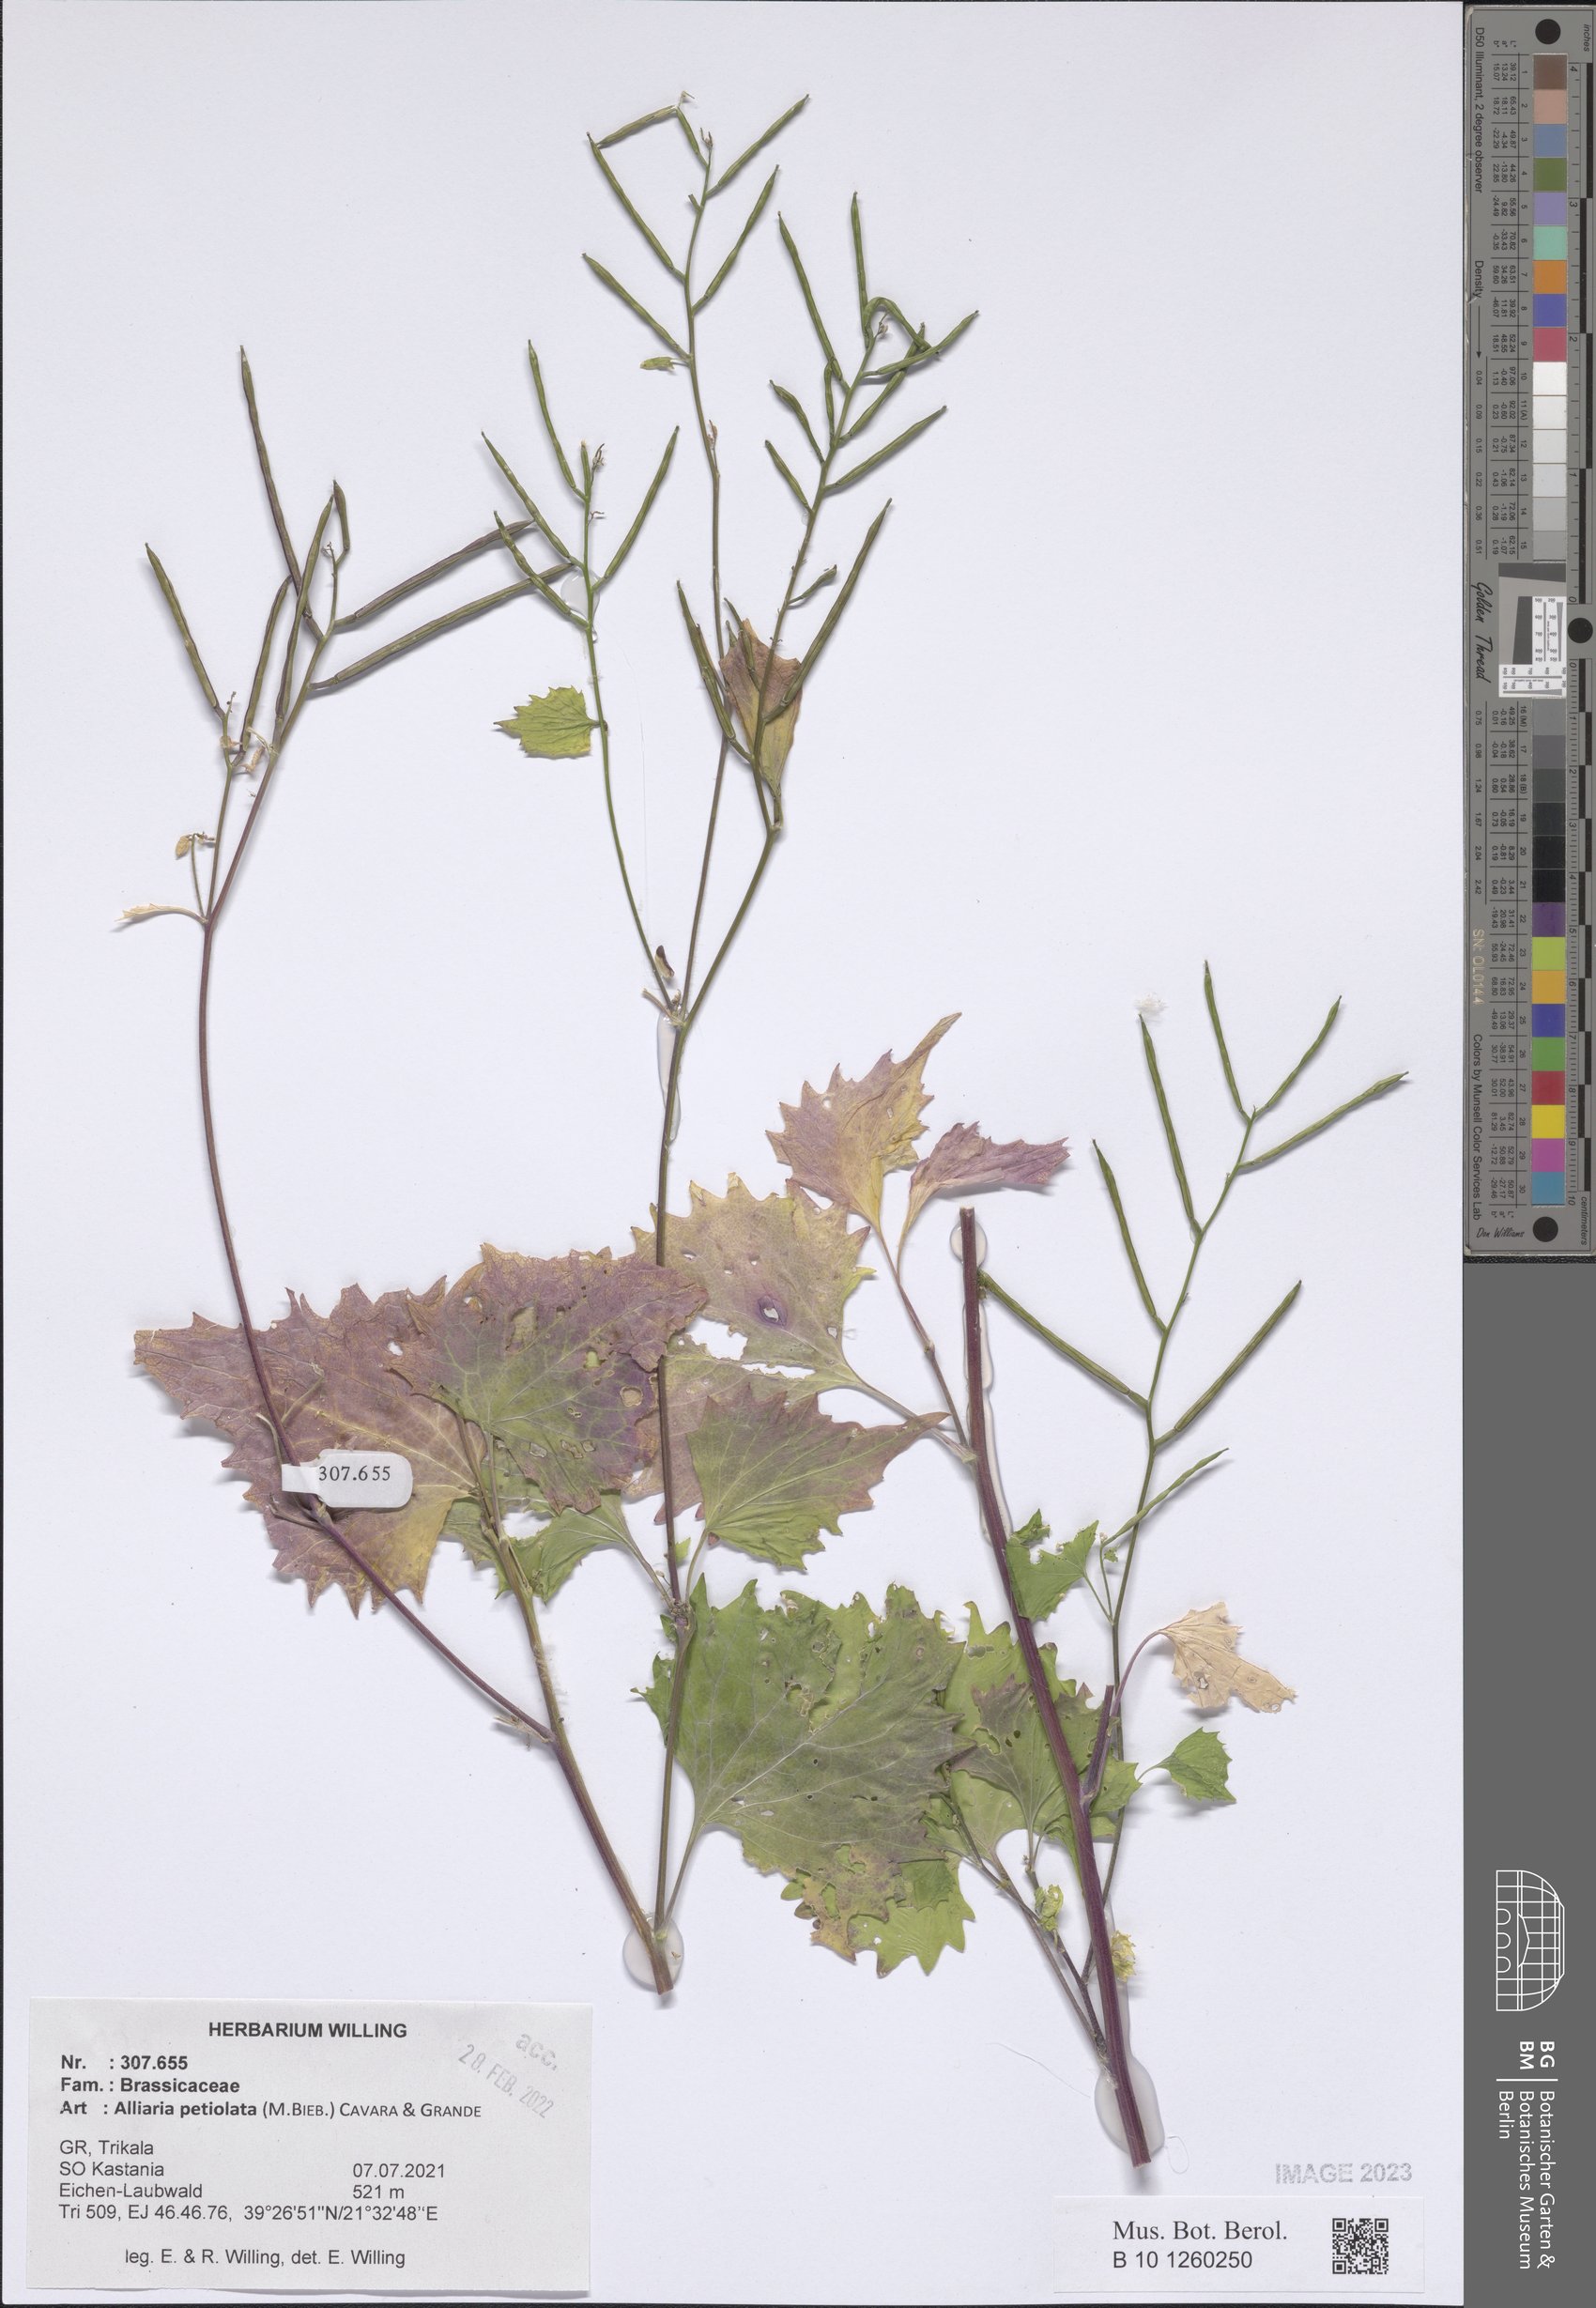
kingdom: Plantae
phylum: Tracheophyta
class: Magnoliopsida
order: Brassicales
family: Brassicaceae
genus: Alliaria
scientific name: Alliaria petiolata
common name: Garlic mustard
